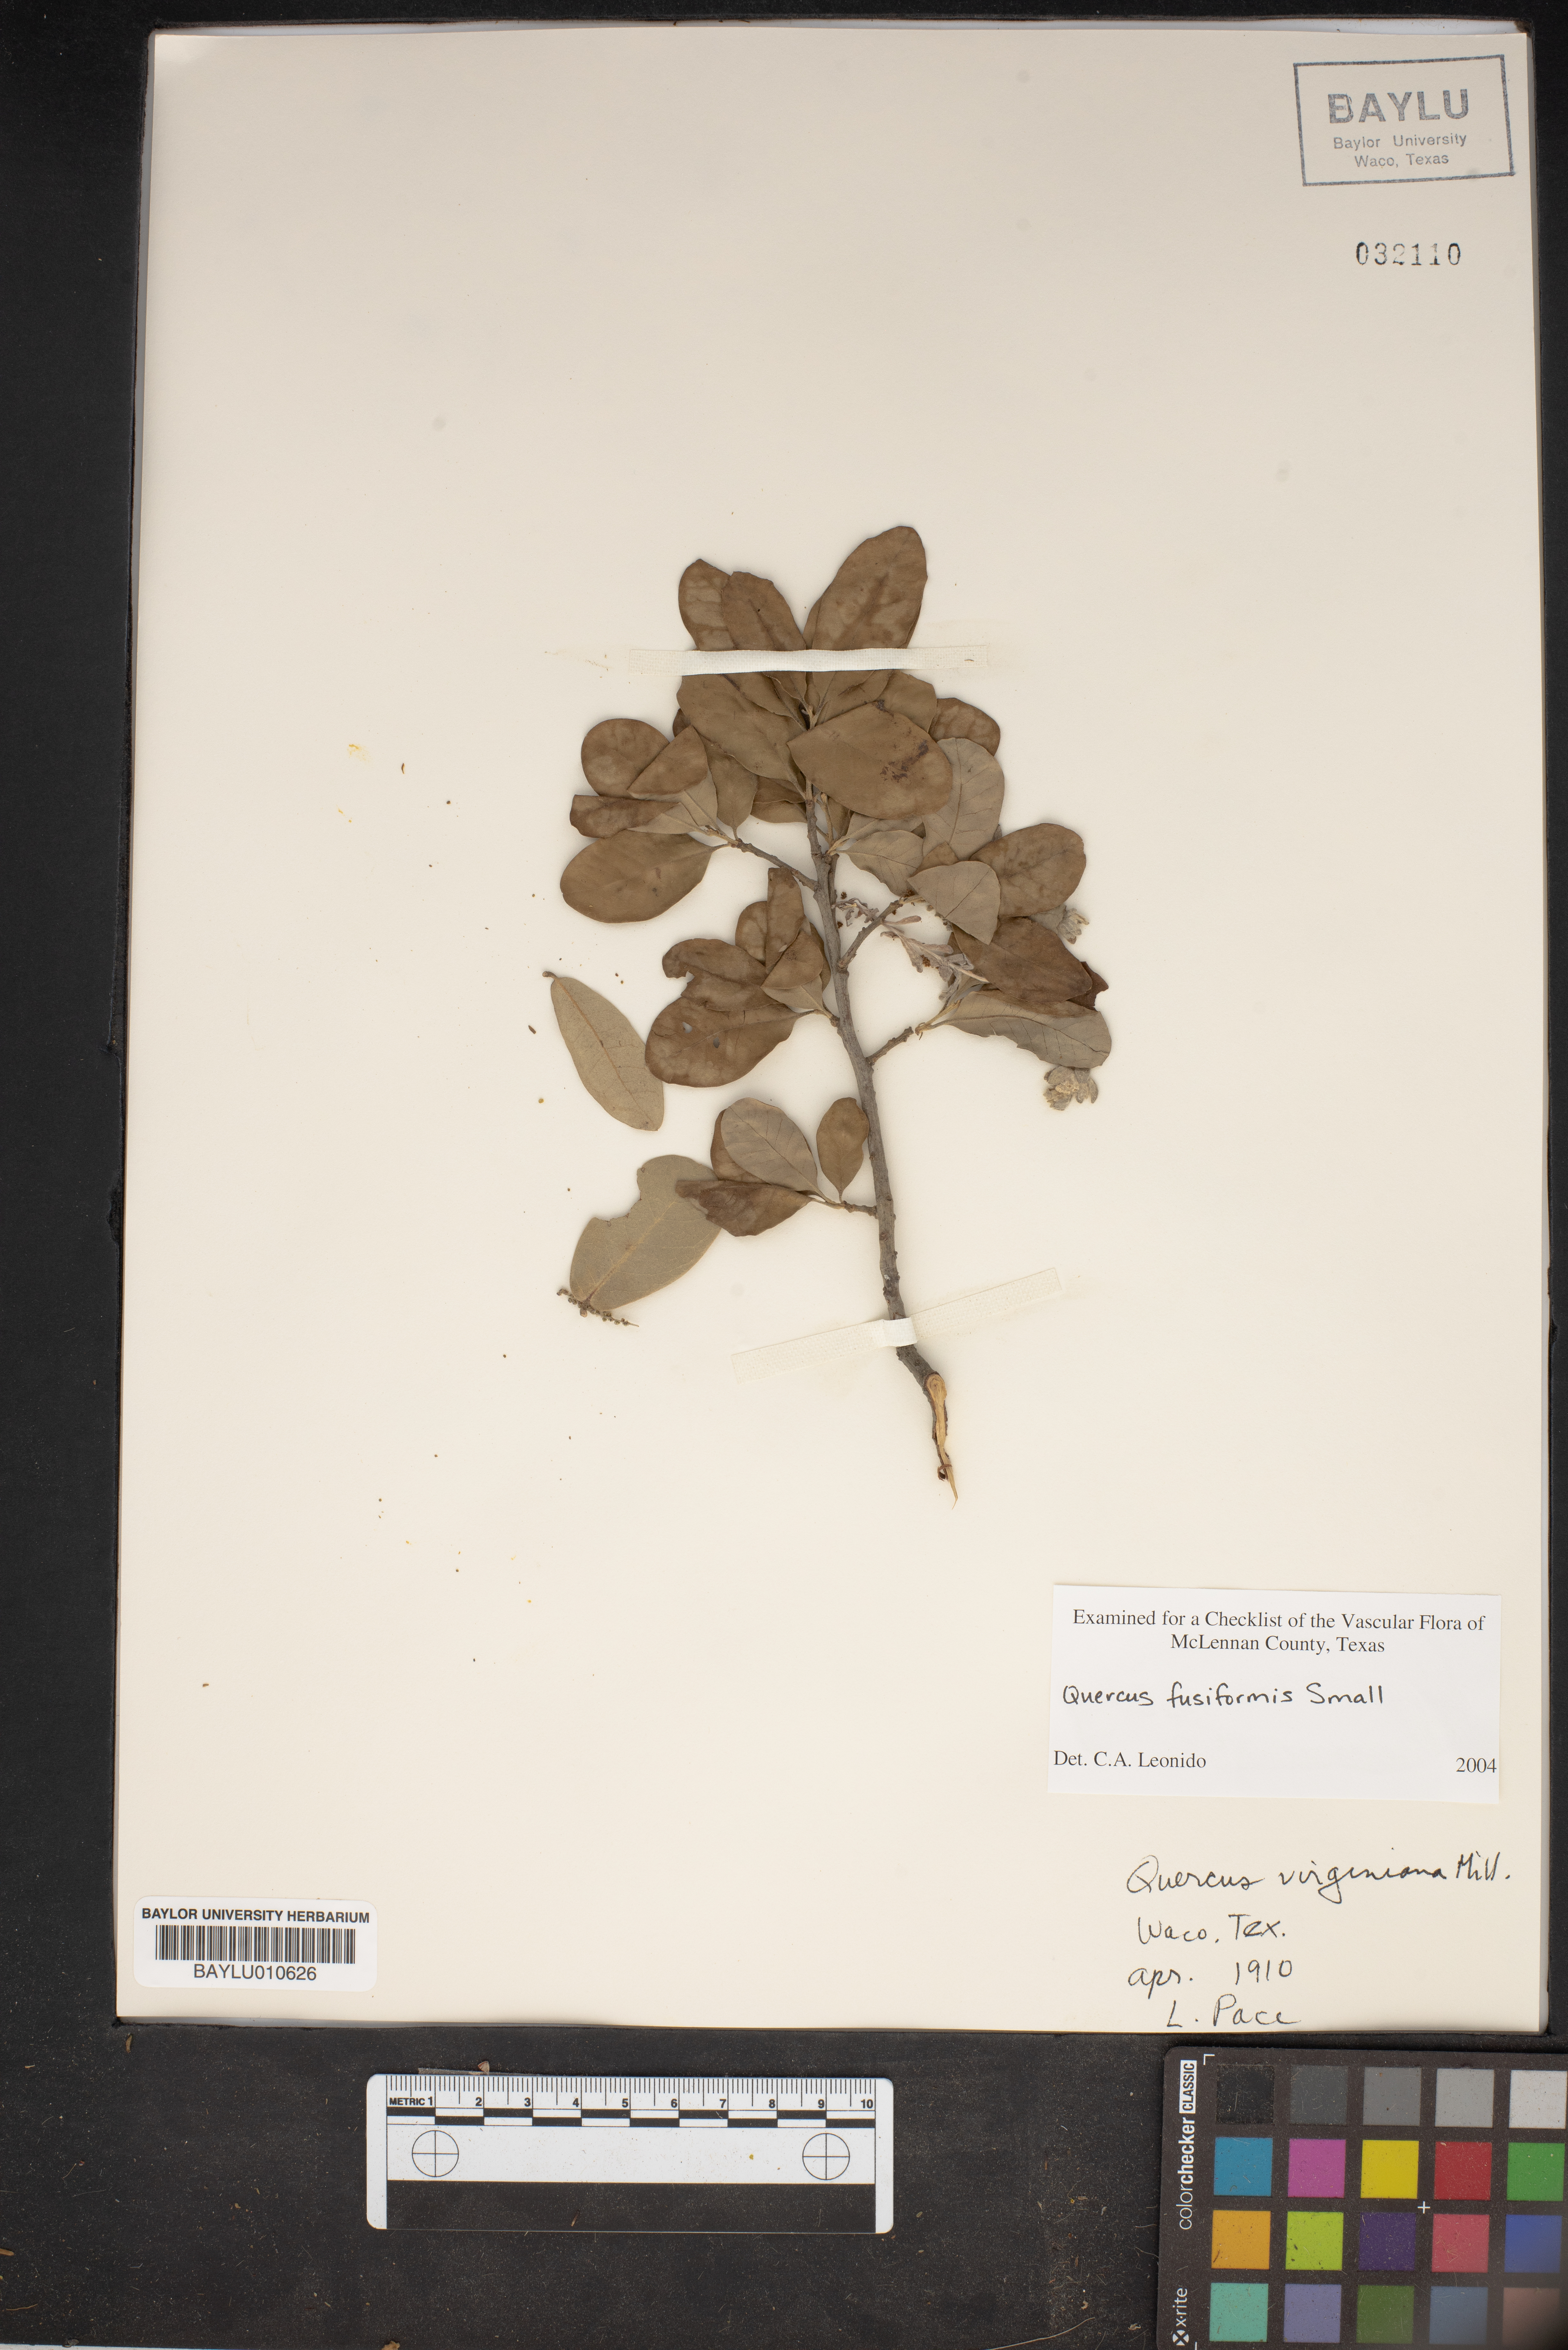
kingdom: Plantae
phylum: Tracheophyta
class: Magnoliopsida
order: Fagales
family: Fagaceae
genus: Quercus
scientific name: Quercus fusiformis
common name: Texas live oak
